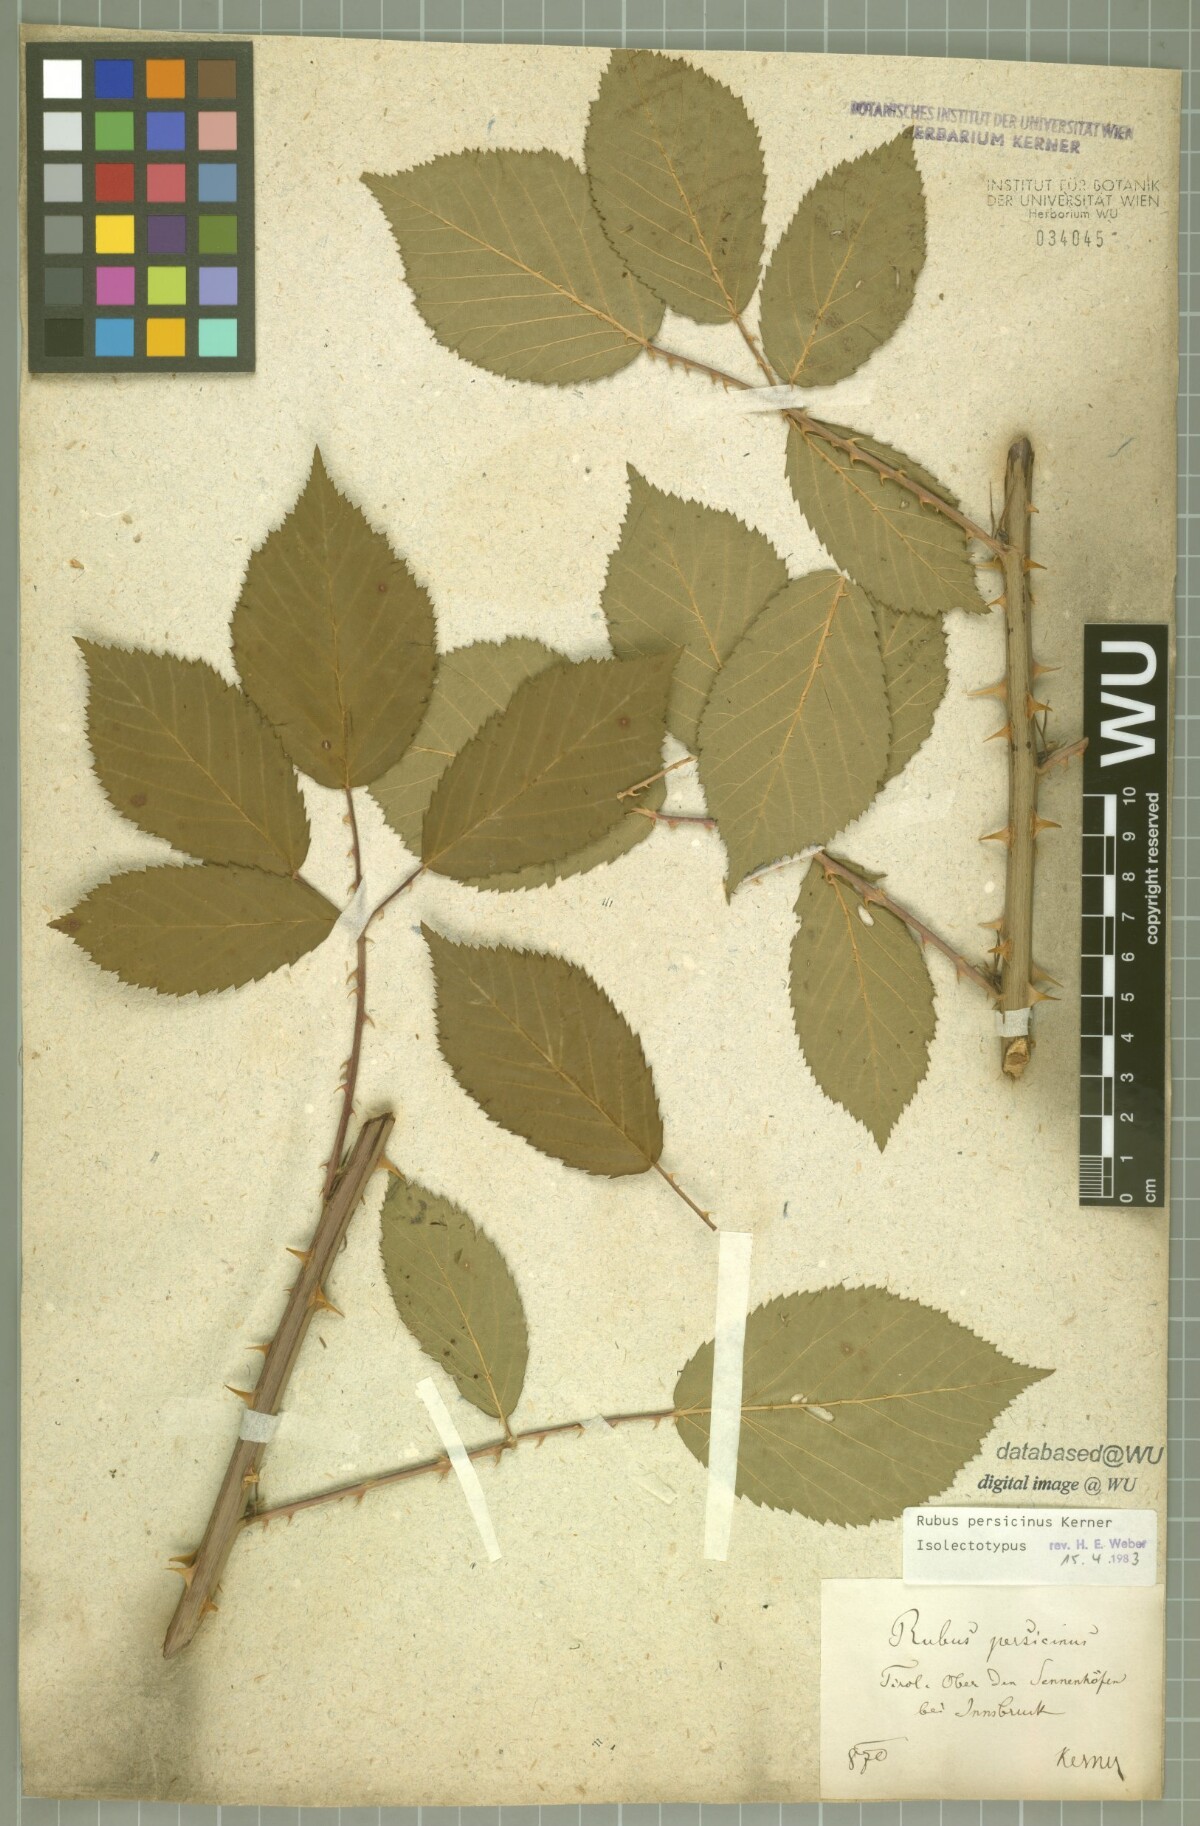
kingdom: Plantae
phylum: Tracheophyta
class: Magnoliopsida
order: Rosales
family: Rosaceae
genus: Rubus
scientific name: Rubus persicinus
